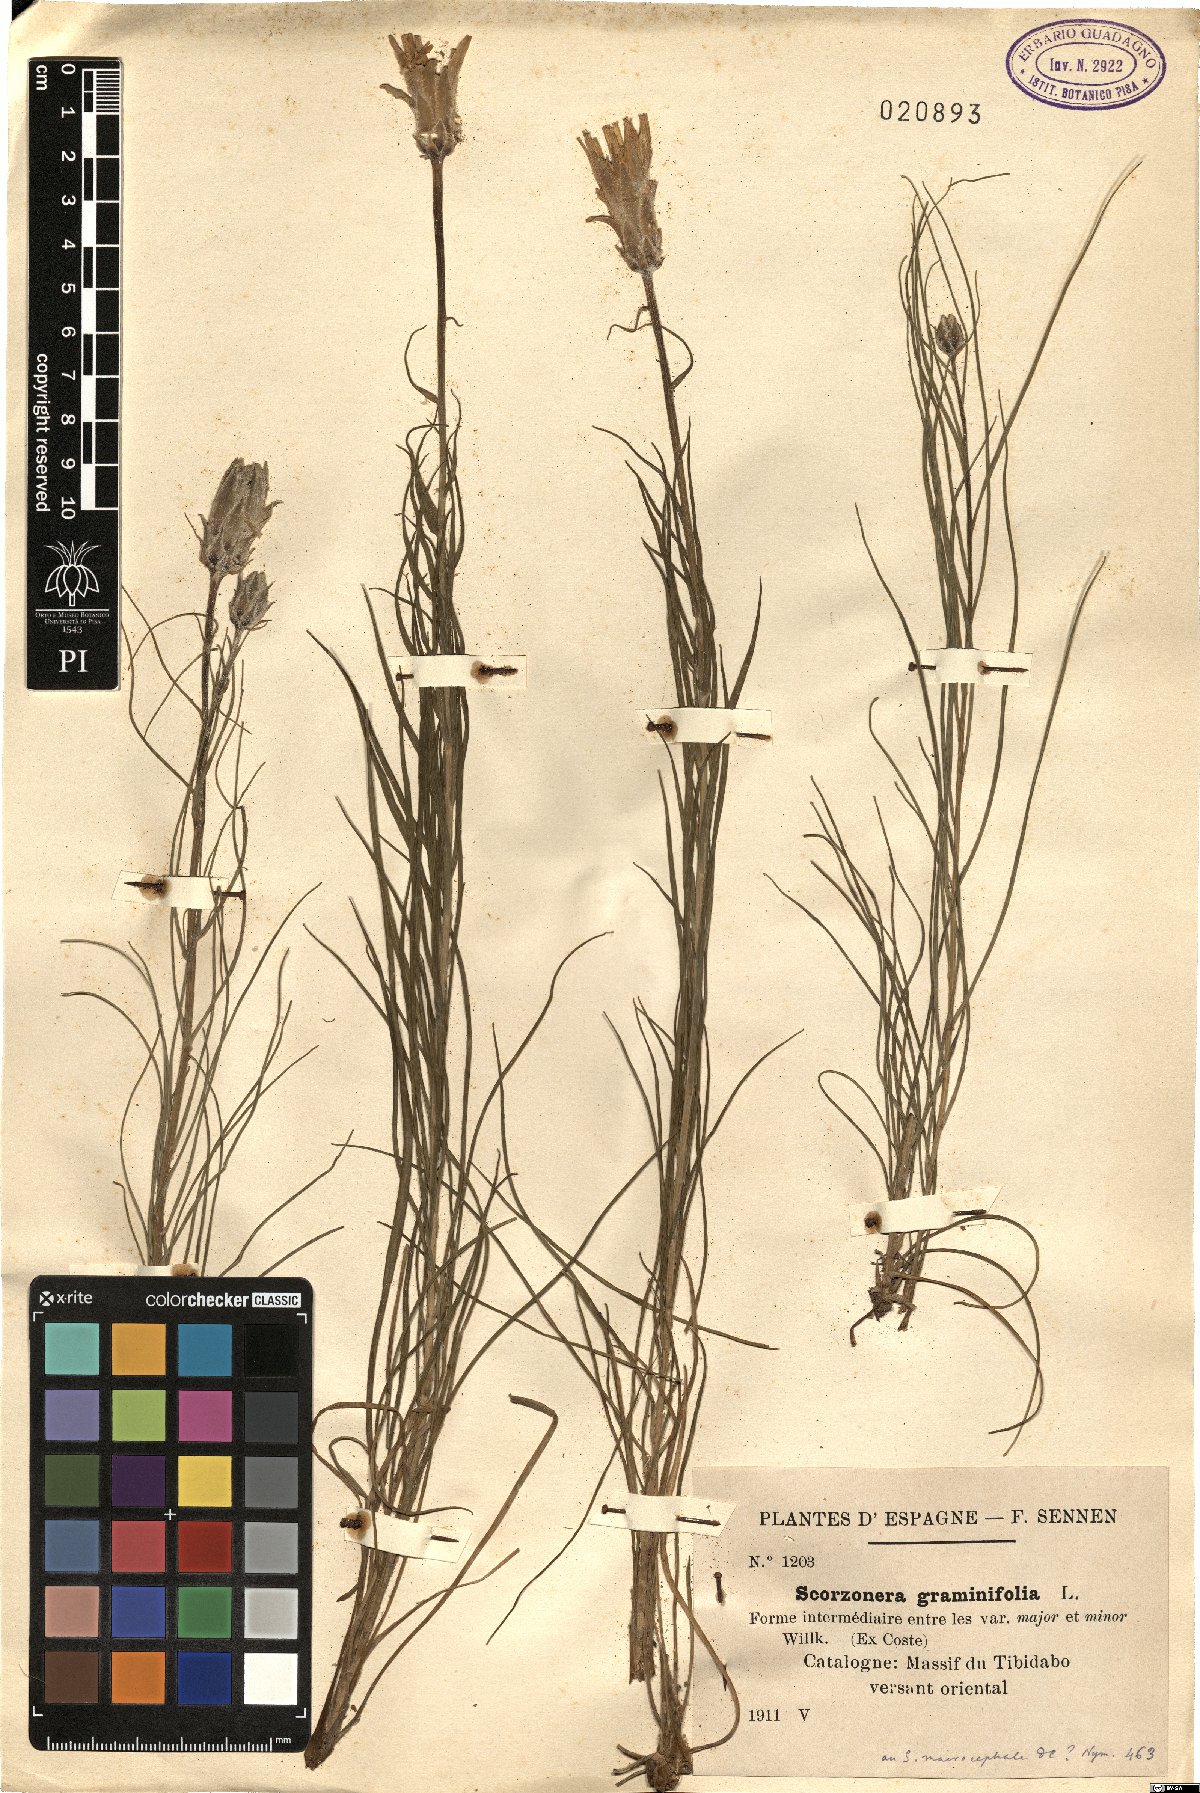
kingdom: Plantae
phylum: Tracheophyta
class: Magnoliopsida
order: Asterales
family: Asteraceae
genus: Scorzonera
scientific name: Scorzonera graminifolia
